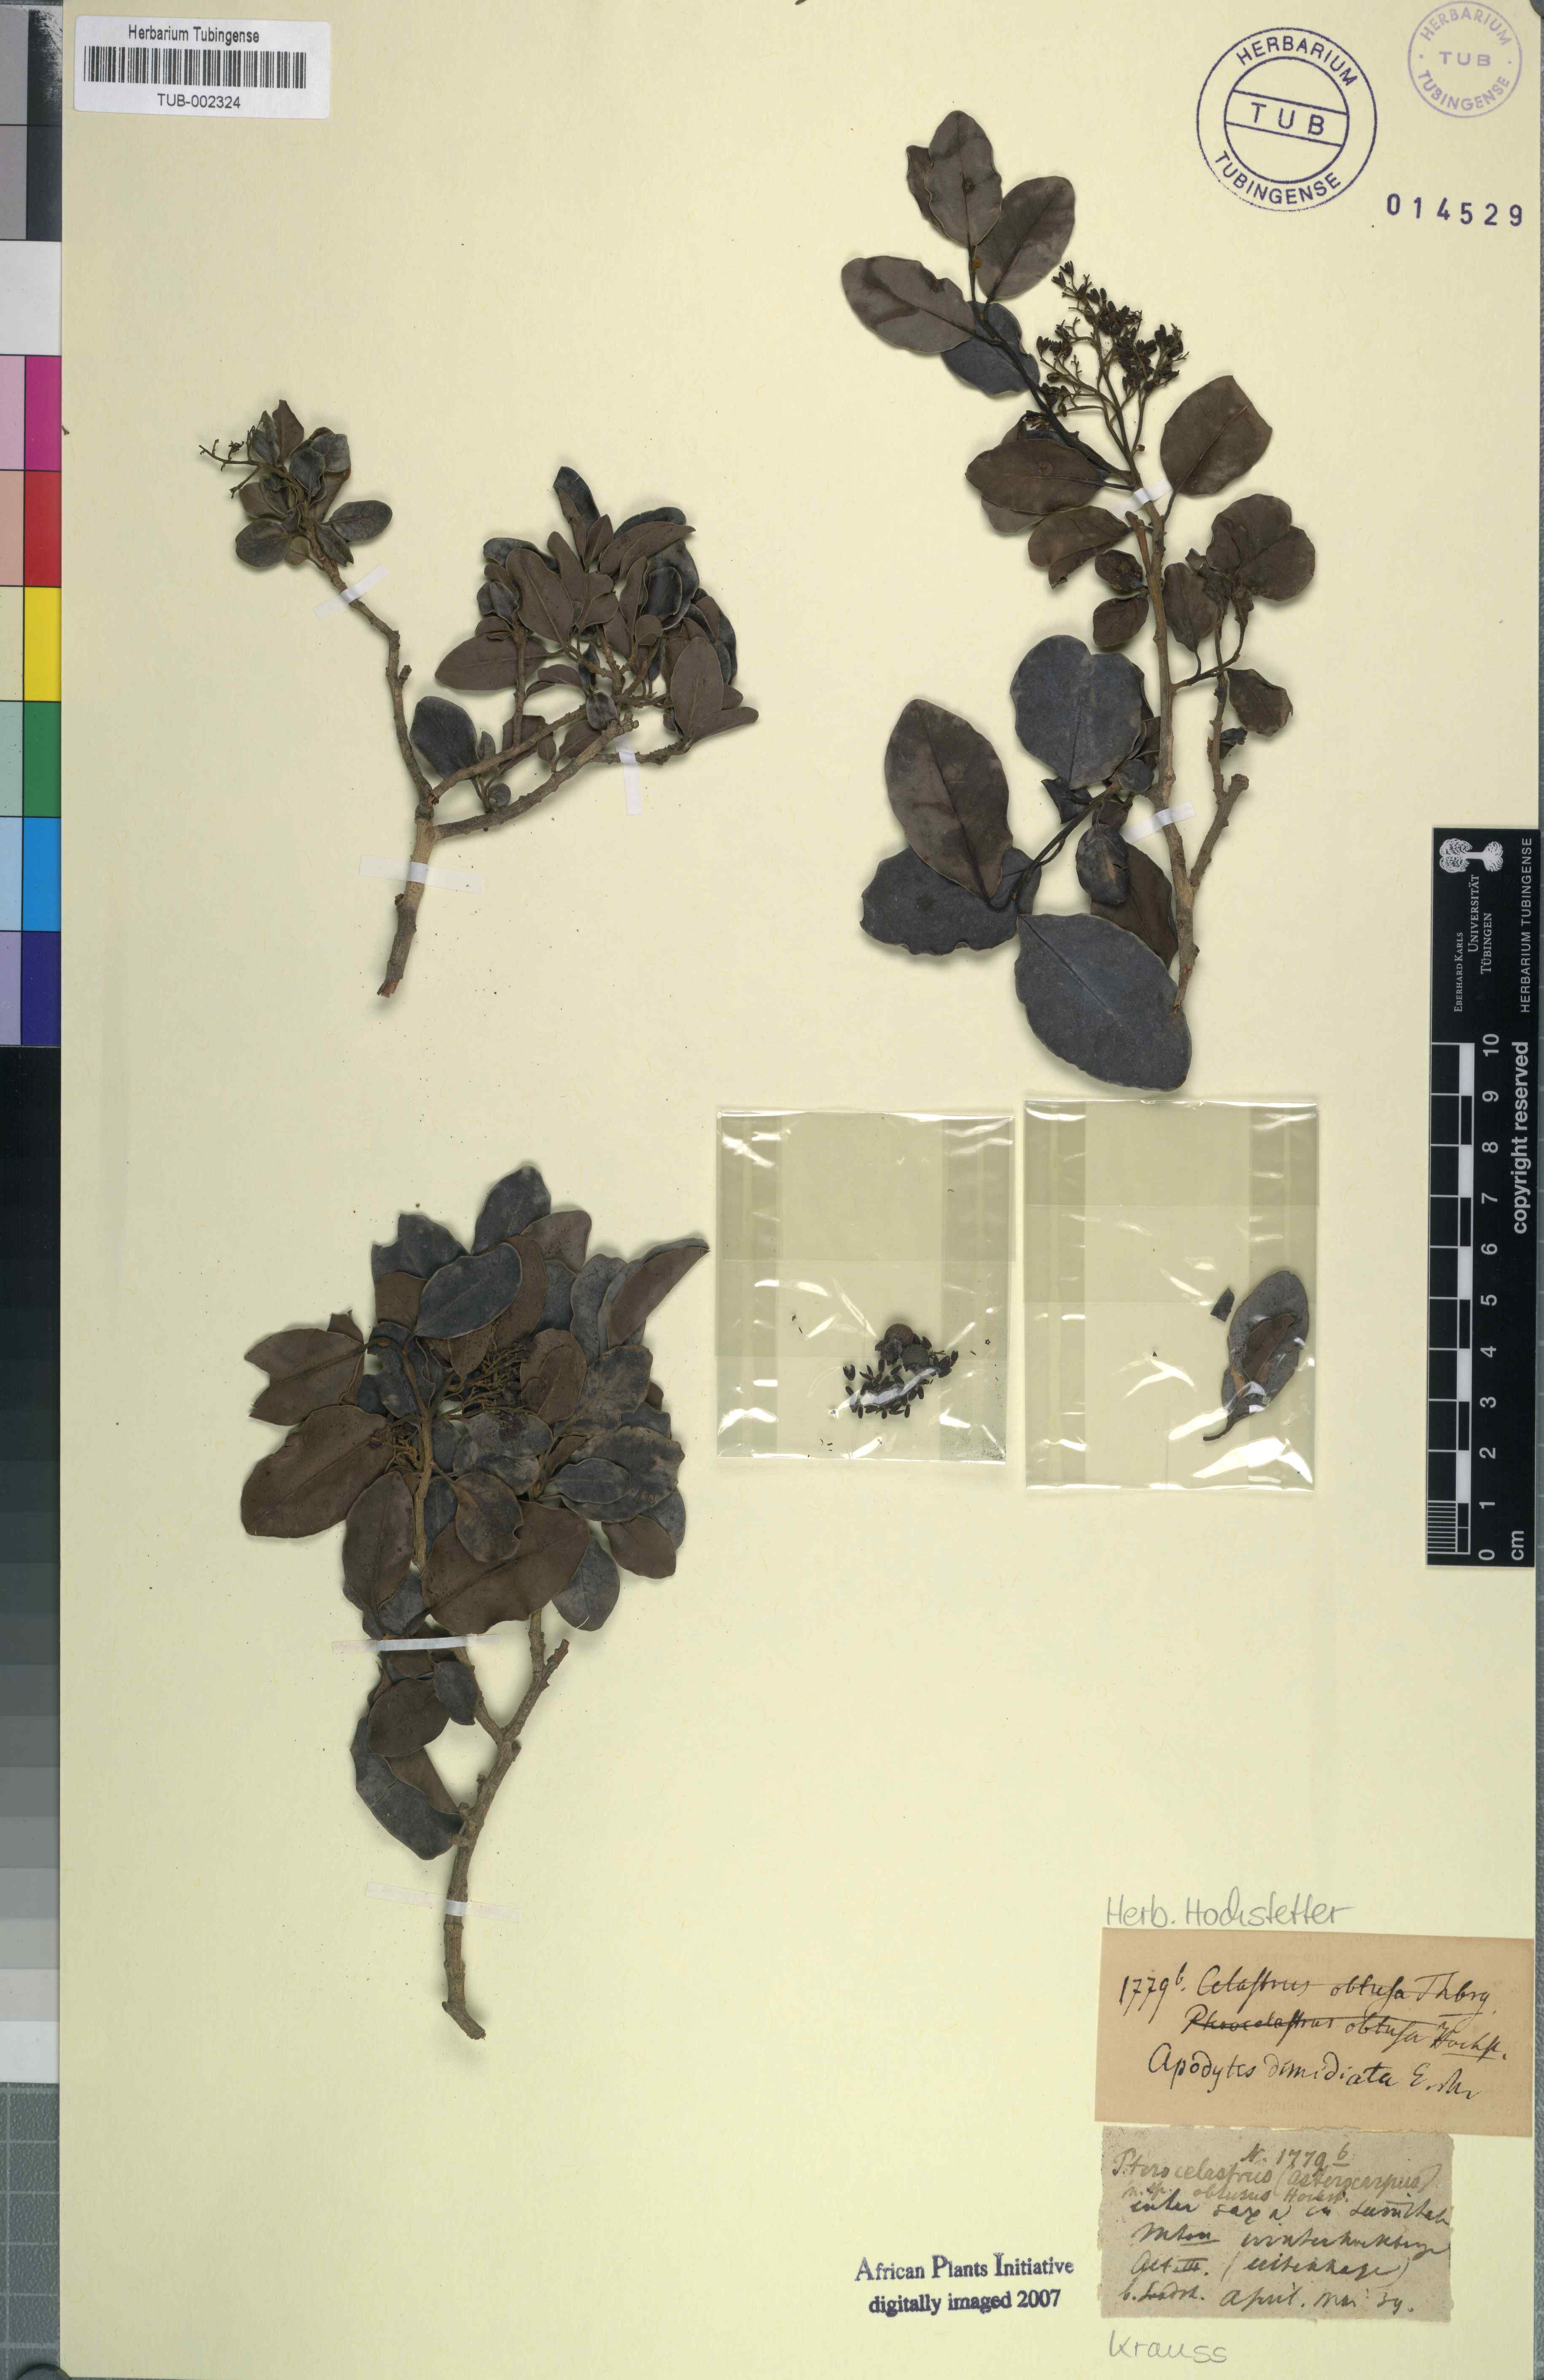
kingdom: Plantae
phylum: Tracheophyta
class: Magnoliopsida
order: Metteniusales
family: Metteniusaceae
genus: Apodytes
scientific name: Apodytes dimidiata
